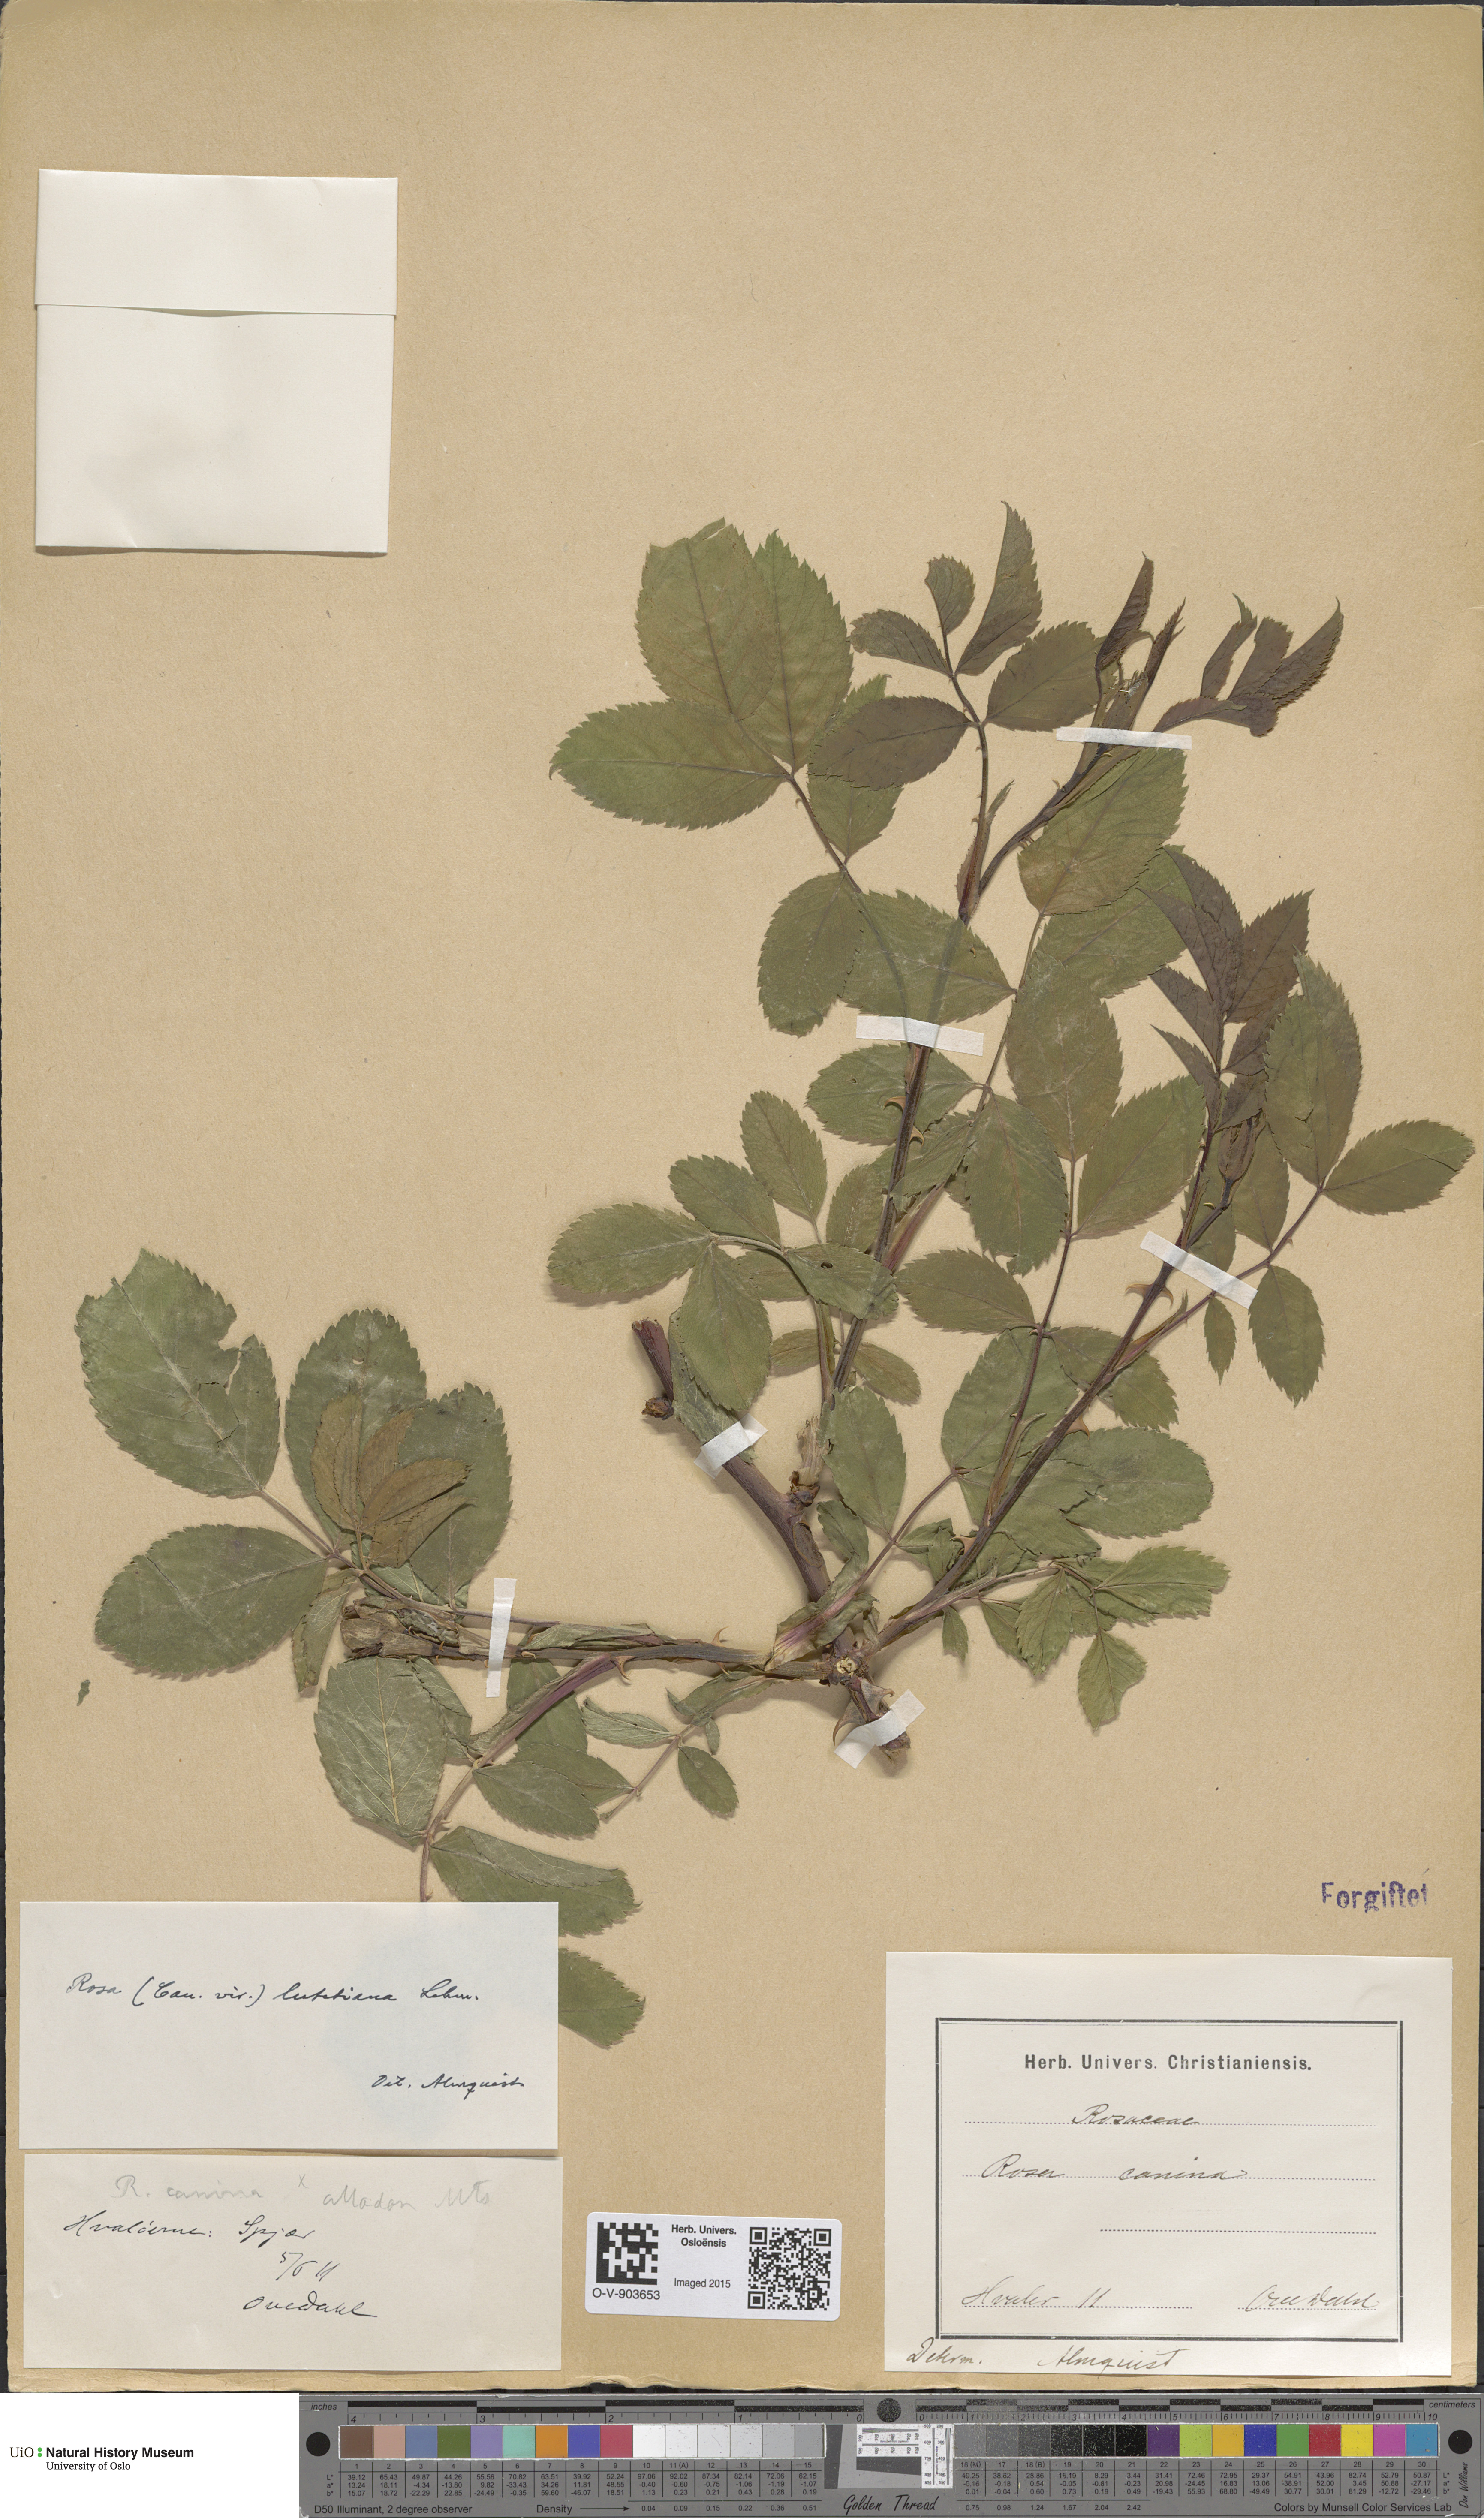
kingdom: Plantae
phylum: Tracheophyta
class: Magnoliopsida
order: Rosales
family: Rosaceae
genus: Rosa
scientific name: Rosa canina
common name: Dog rose
